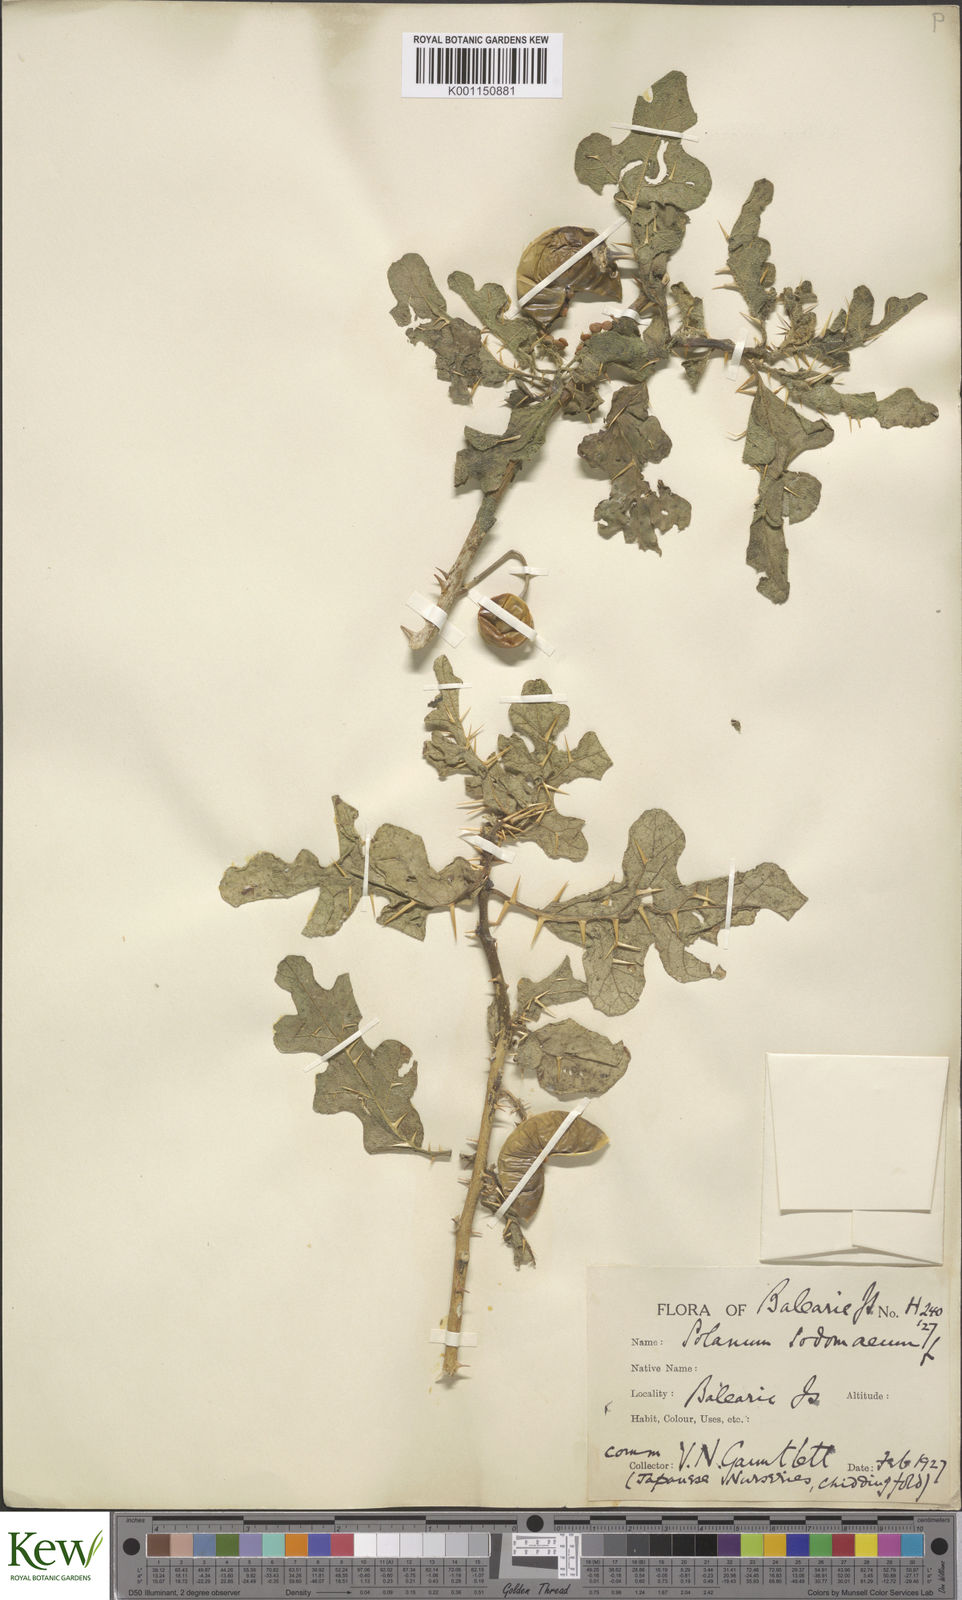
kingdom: Plantae
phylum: Tracheophyta
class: Magnoliopsida
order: Solanales
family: Solanaceae
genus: Solanum
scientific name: Solanum anguivi
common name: Forest bitterberry
